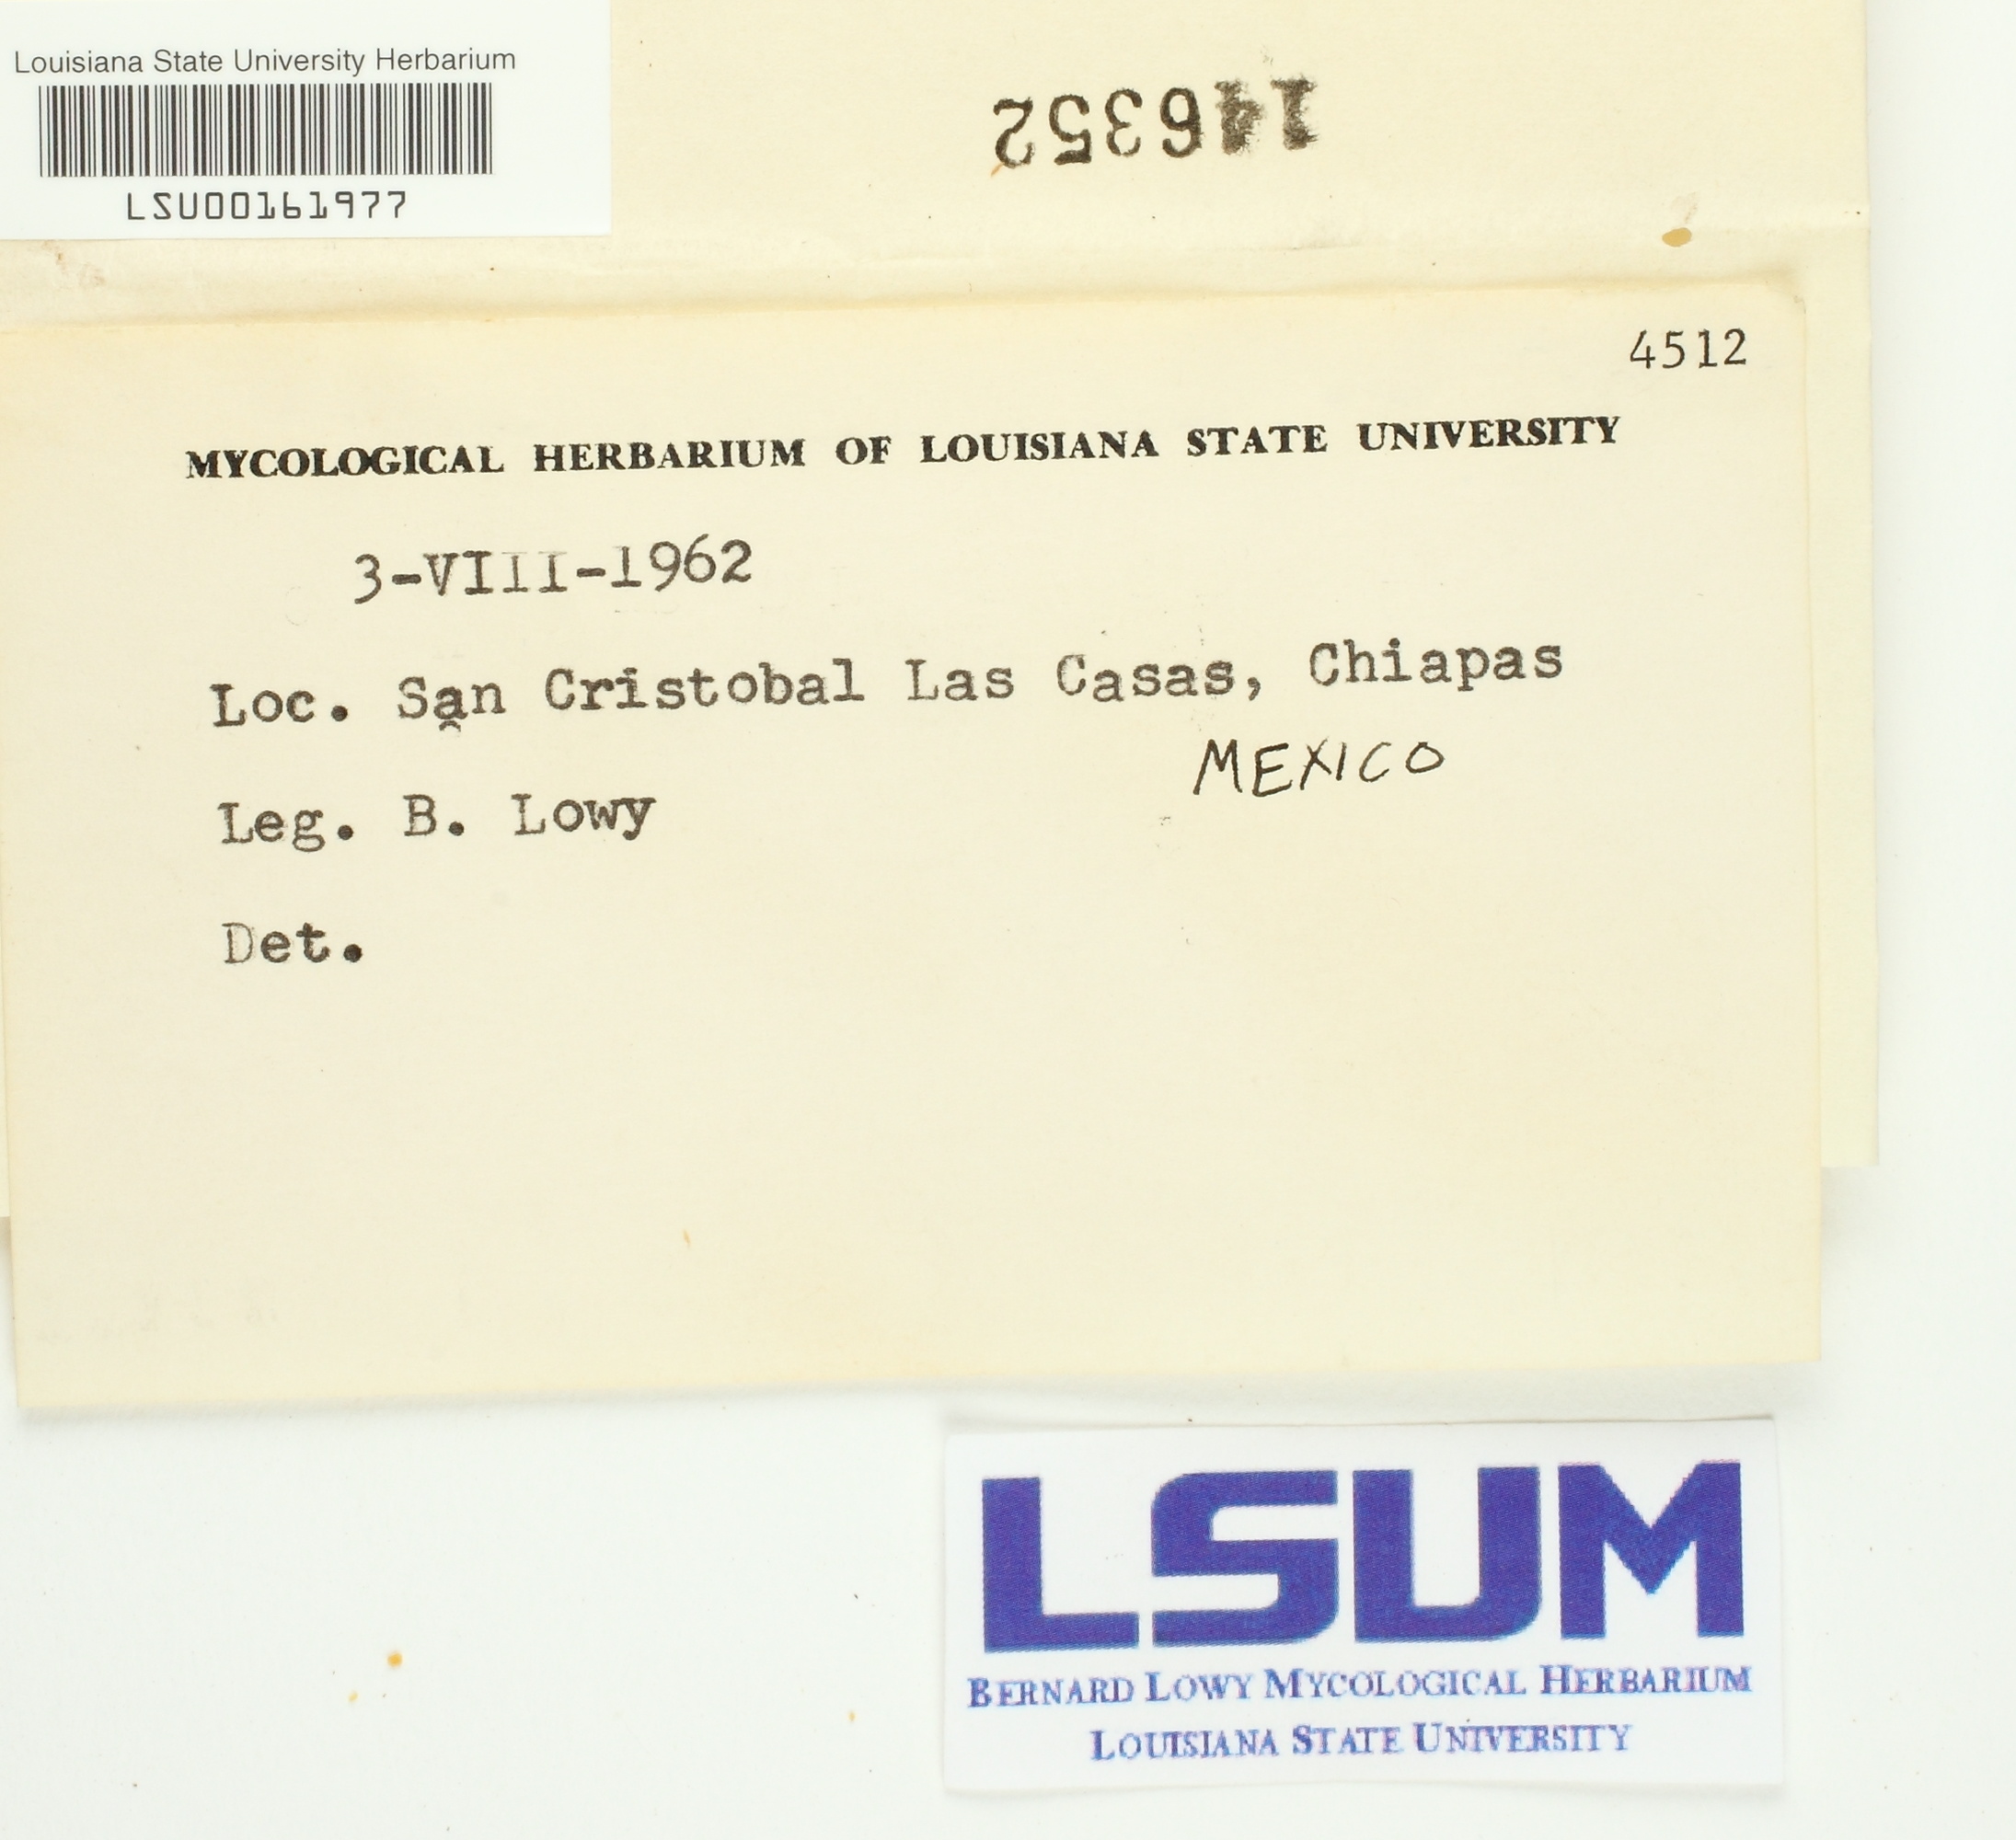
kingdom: Fungi
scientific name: Fungi
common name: Fungi
